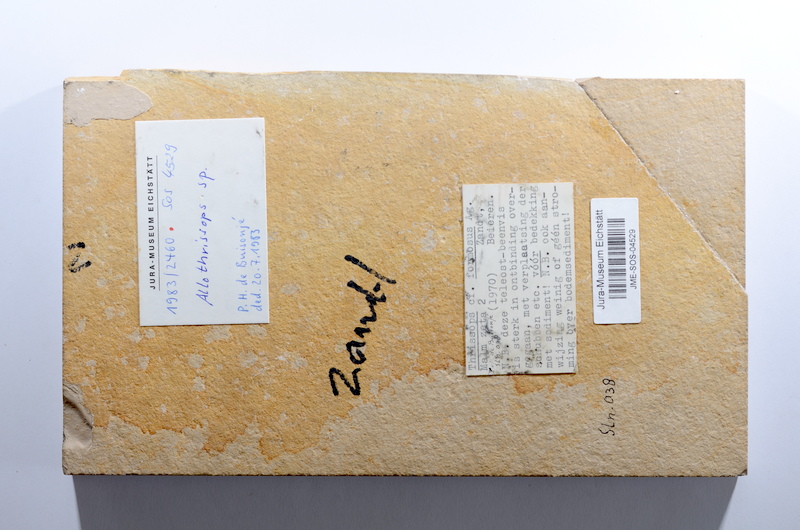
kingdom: Animalia
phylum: Chordata
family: Allothrissopidae
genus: Allothrissops
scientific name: Allothrissops
